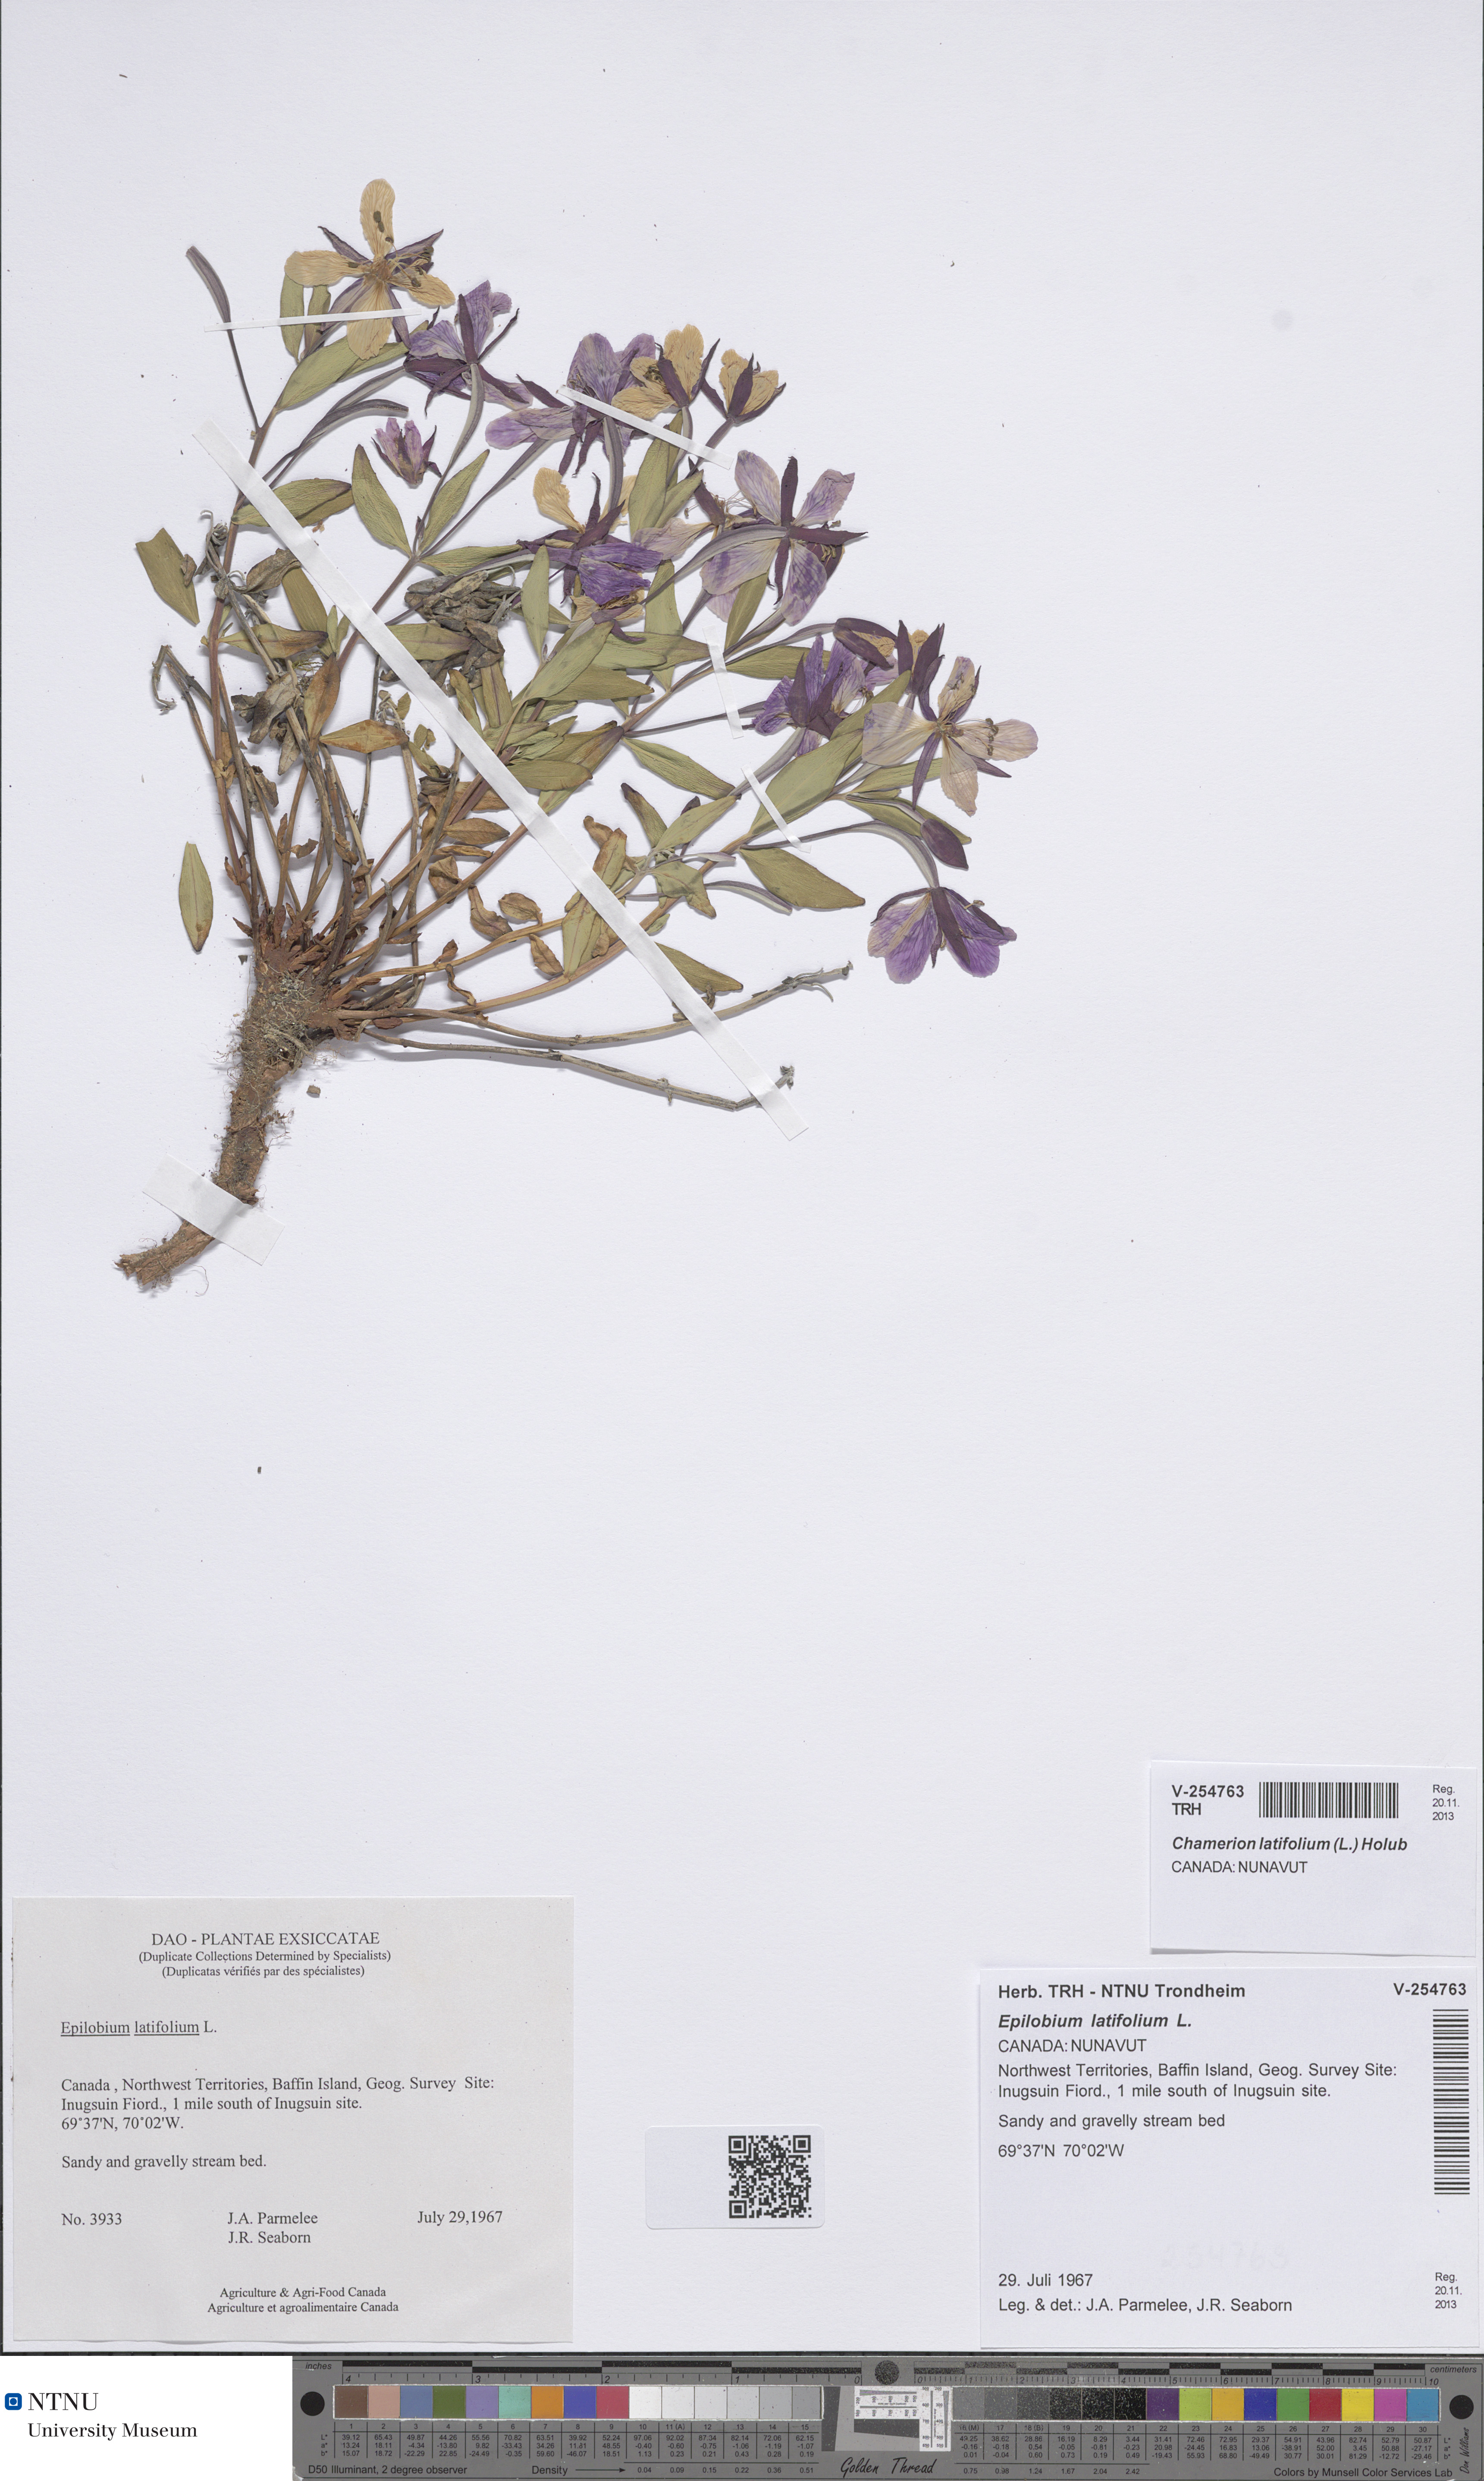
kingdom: Plantae
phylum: Tracheophyta
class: Magnoliopsida
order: Myrtales
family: Onagraceae
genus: Chamaenerion
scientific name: Chamaenerion latifolium
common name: Dwarf fireweed
